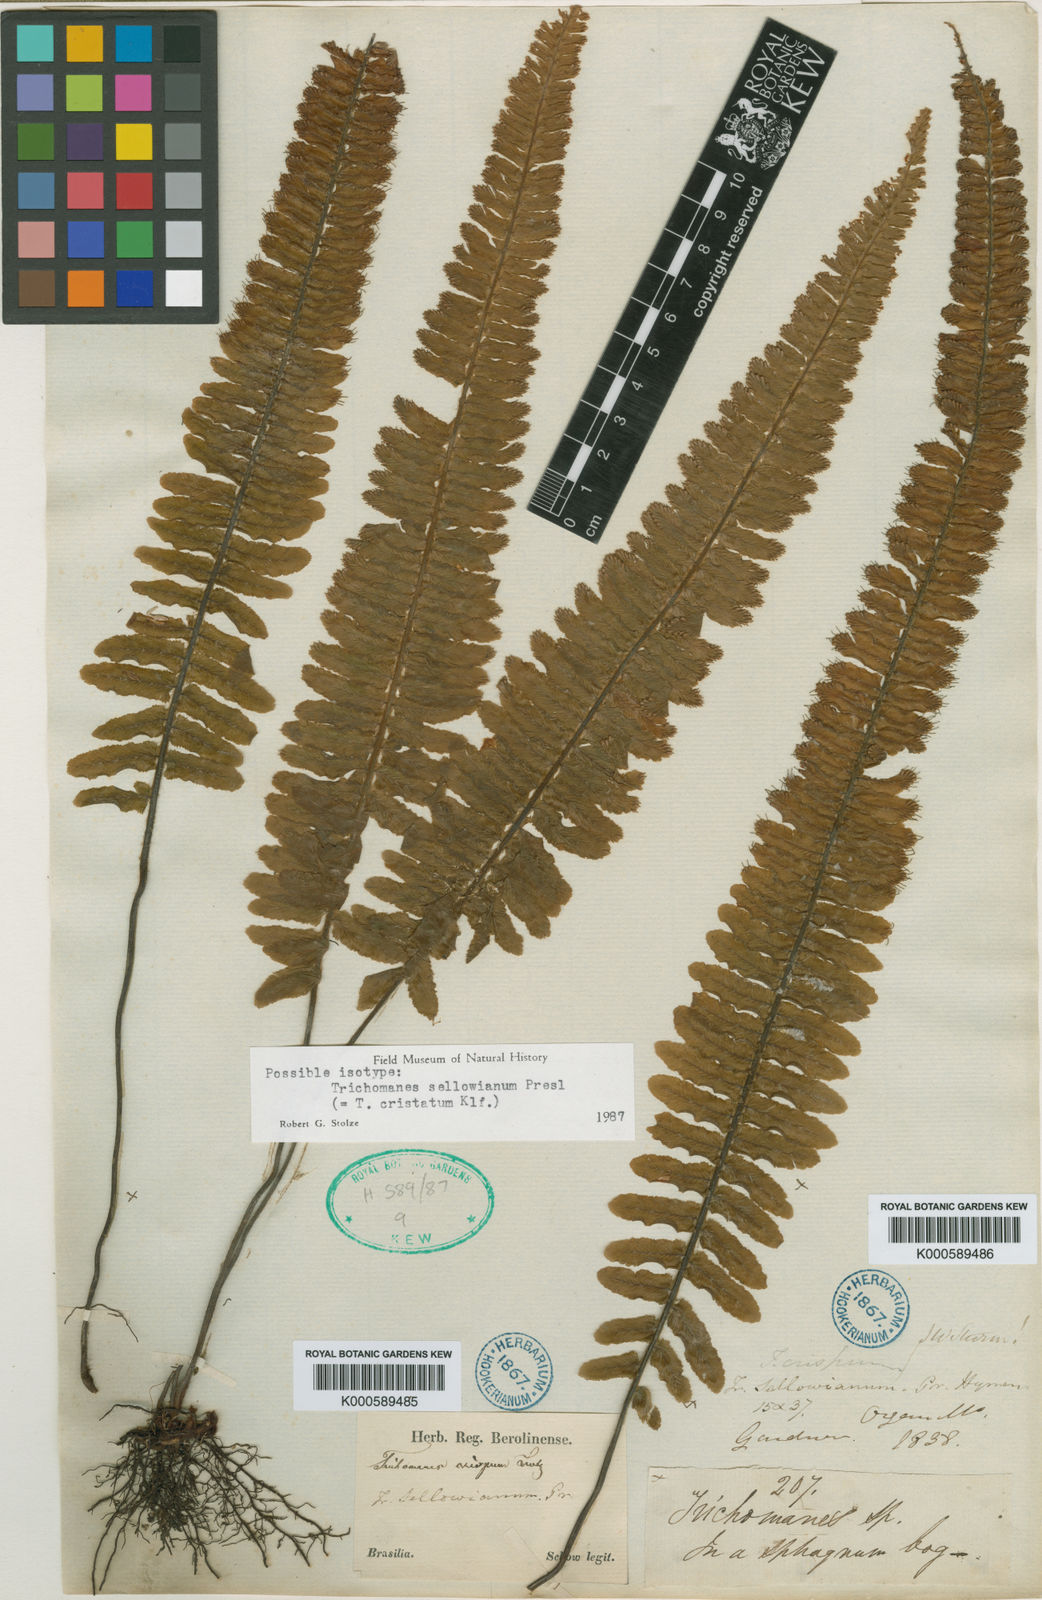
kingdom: Plantae
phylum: Tracheophyta
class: Polypodiopsida
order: Hymenophyllales
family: Hymenophyllaceae
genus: Trichomanes
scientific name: Trichomanes cristatum
